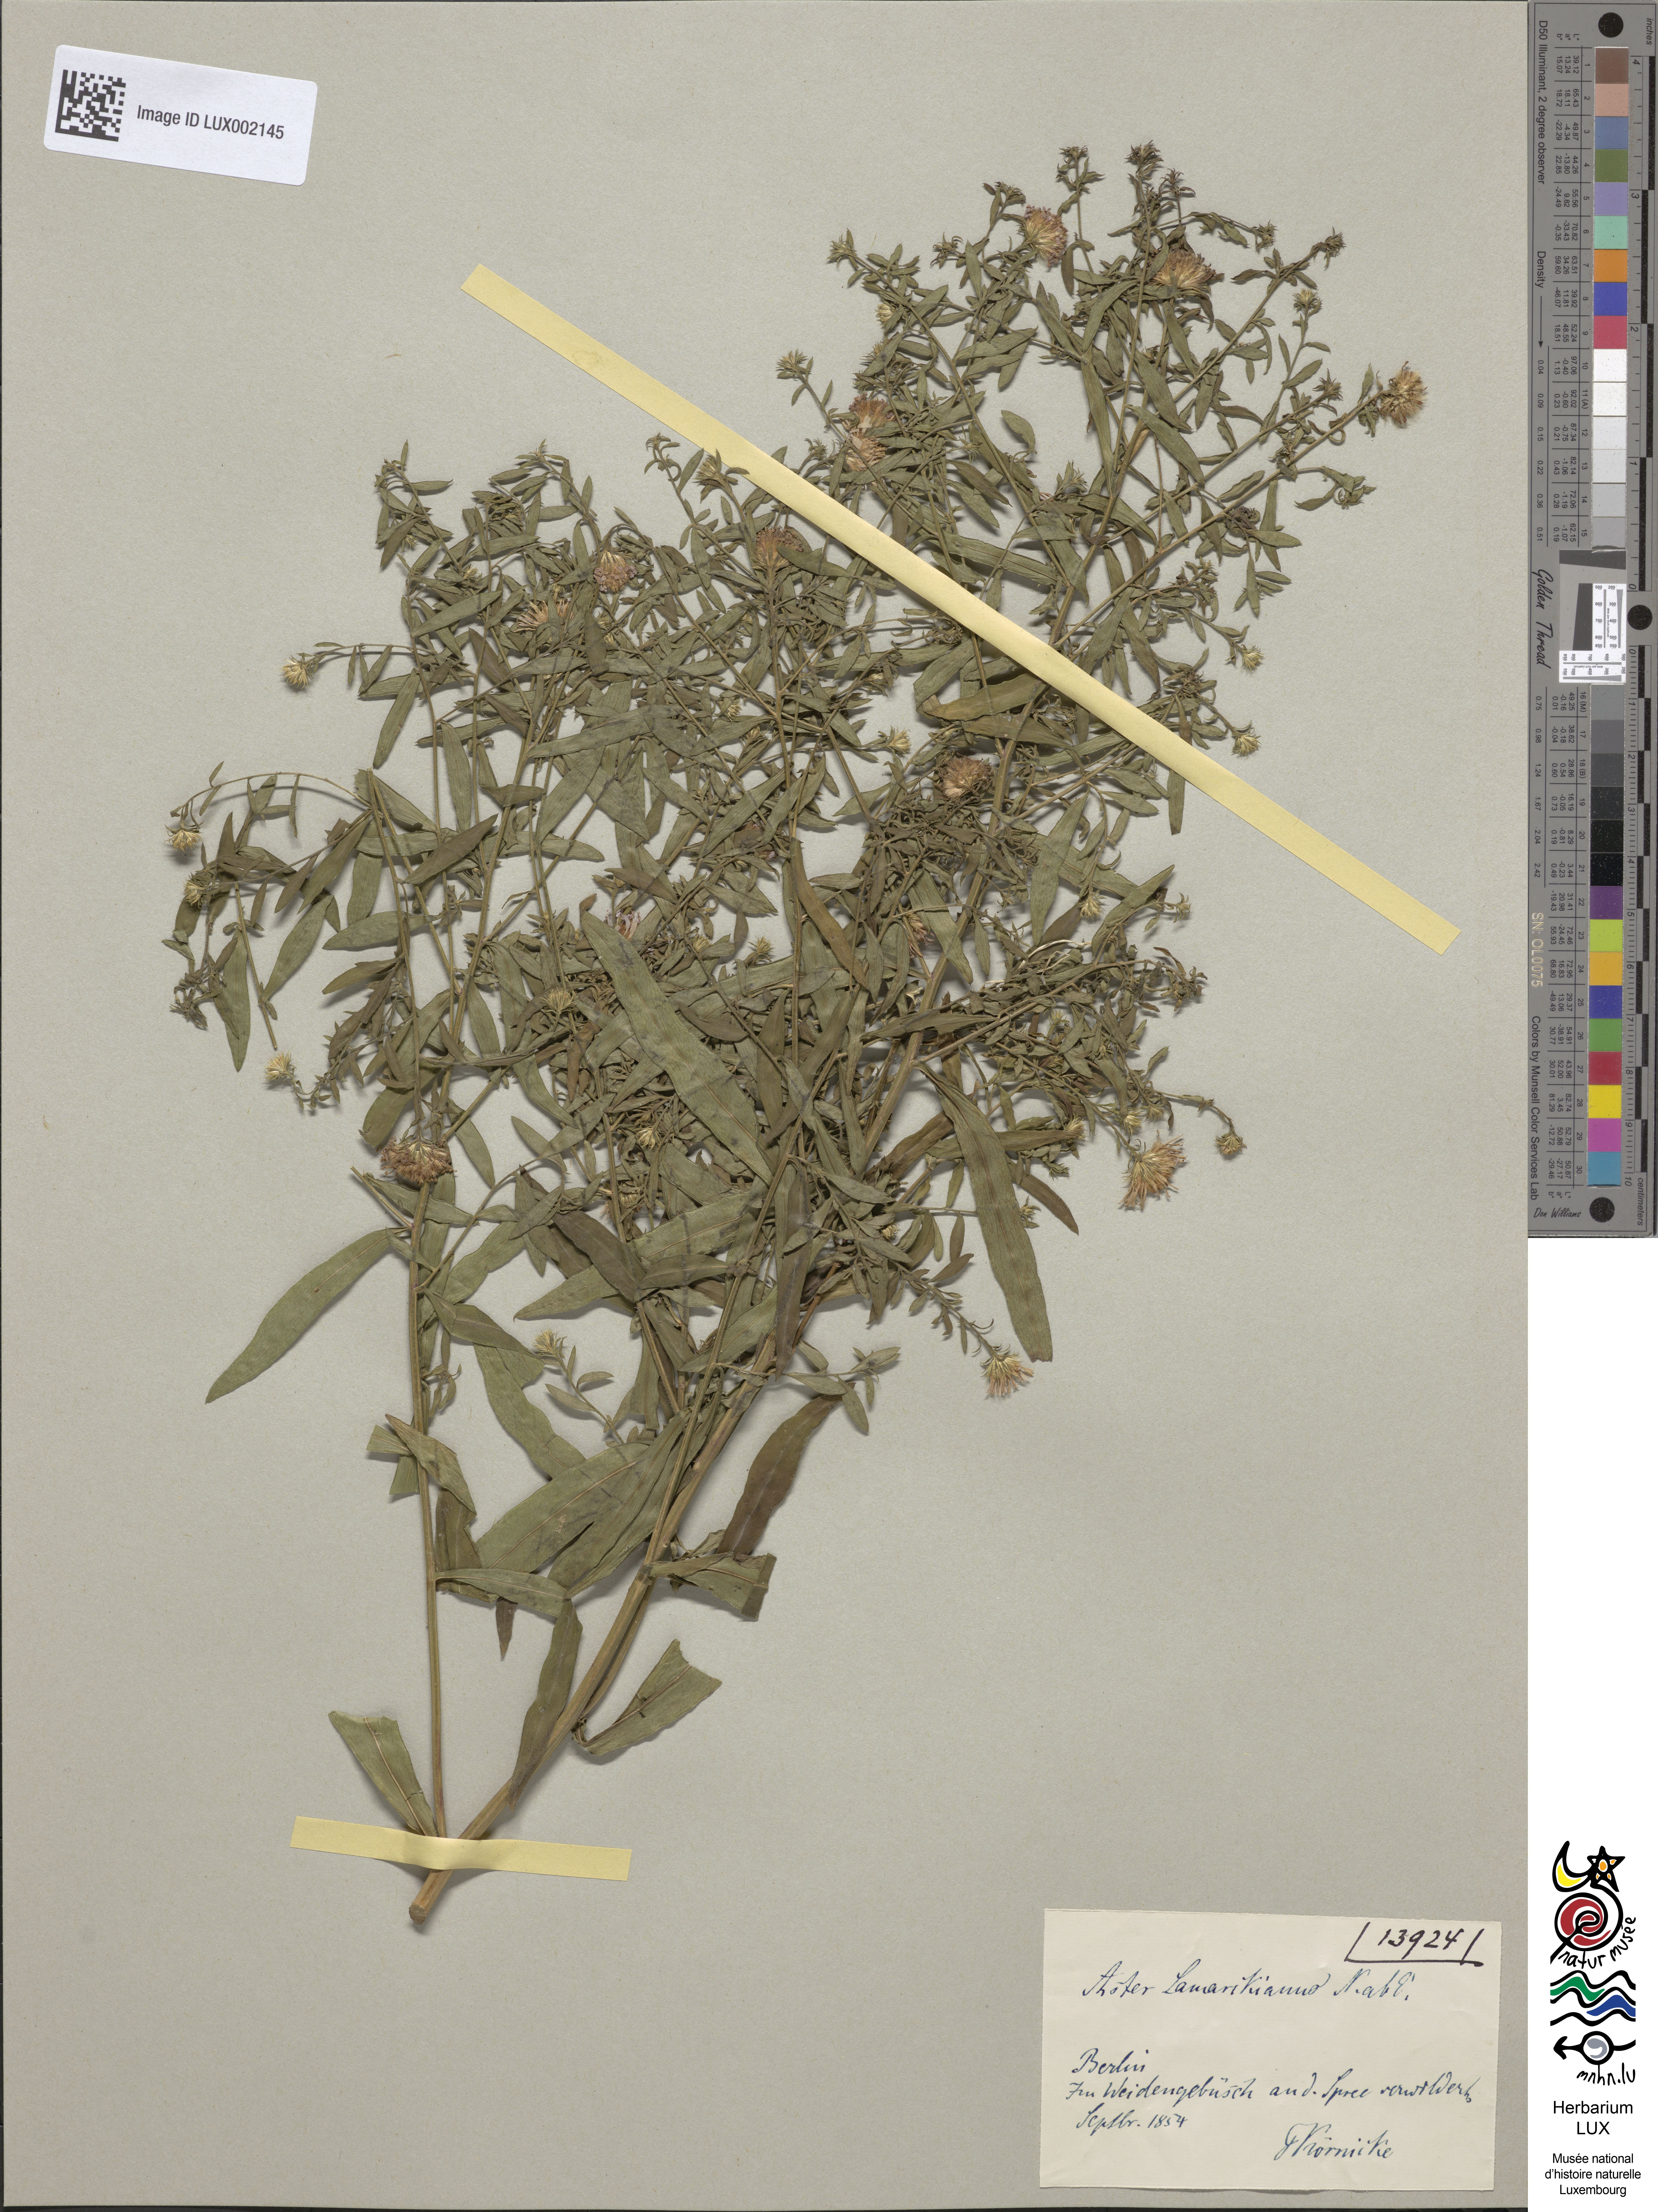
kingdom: Plantae
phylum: Tracheophyta
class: Magnoliopsida
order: Asterales
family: Asteraceae
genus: Symphyotrichum
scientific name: Symphyotrichum salignum
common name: Common michaelmas daisy
